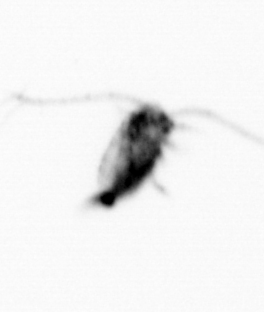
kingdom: Animalia
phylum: Arthropoda
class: Copepoda
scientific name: Copepoda
